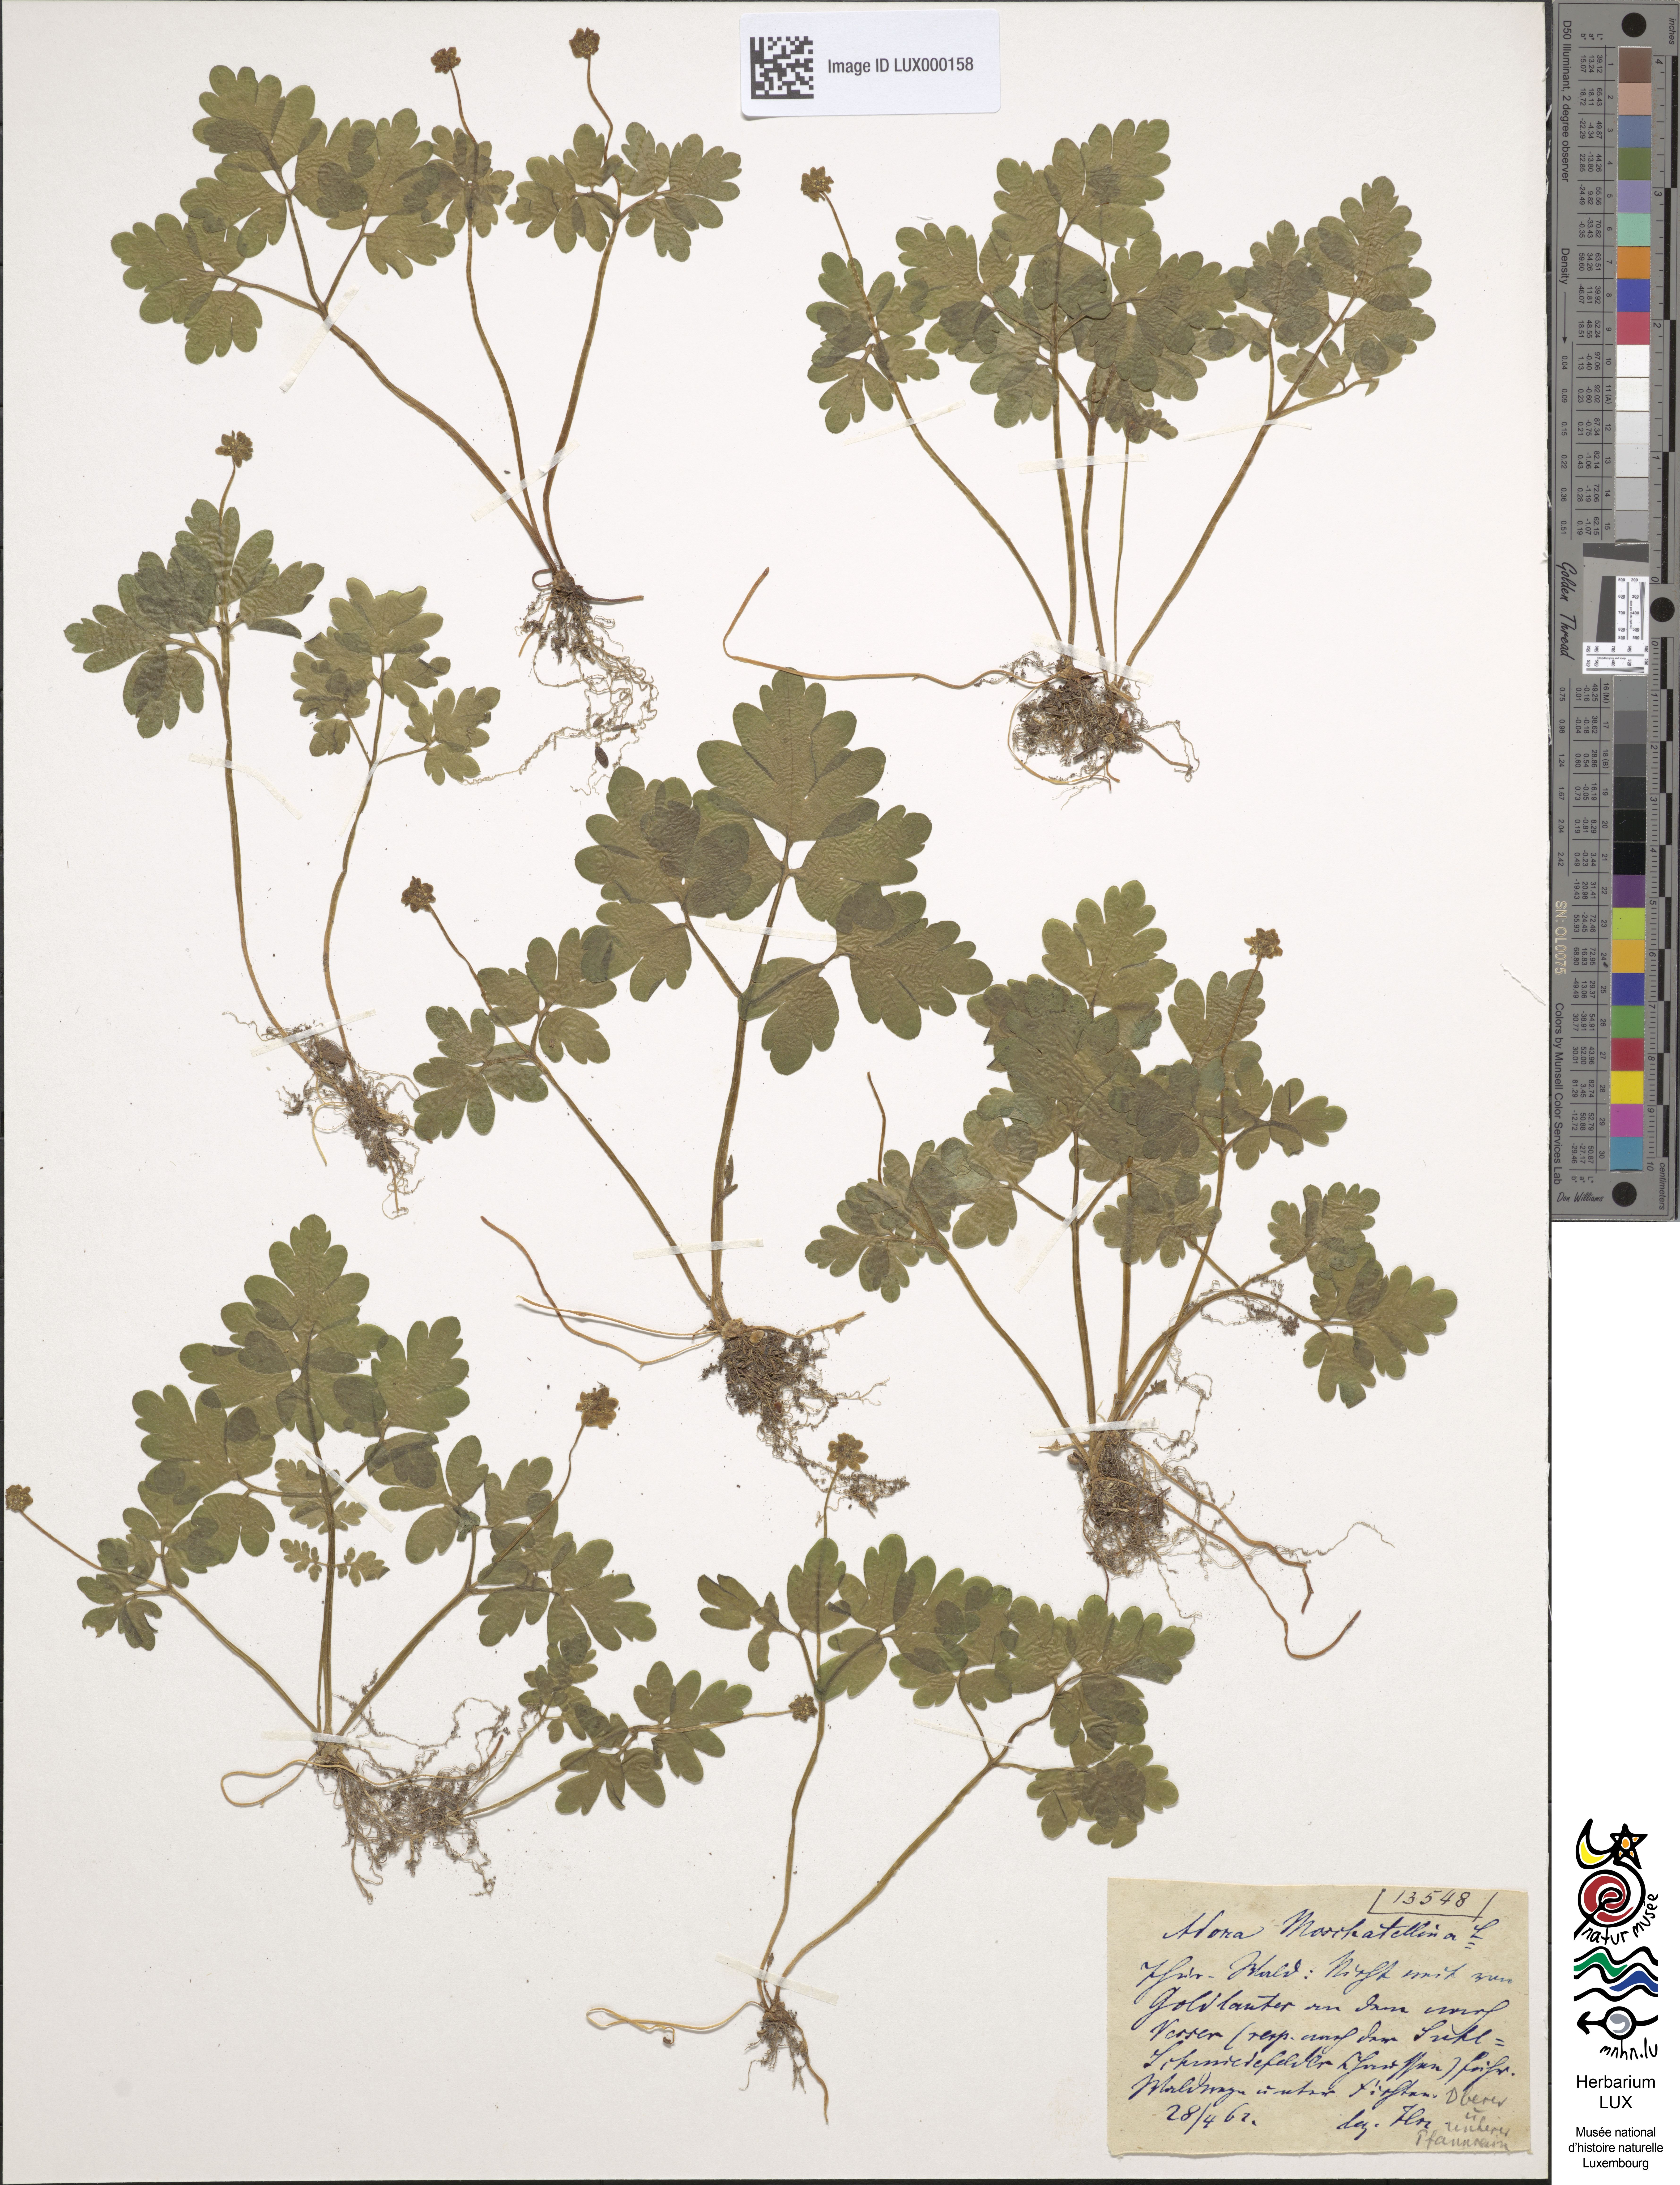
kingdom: Plantae
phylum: Tracheophyta
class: Magnoliopsida
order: Dipsacales
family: Viburnaceae
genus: Adoxa
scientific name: Adoxa moschatellina
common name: Moschatel
